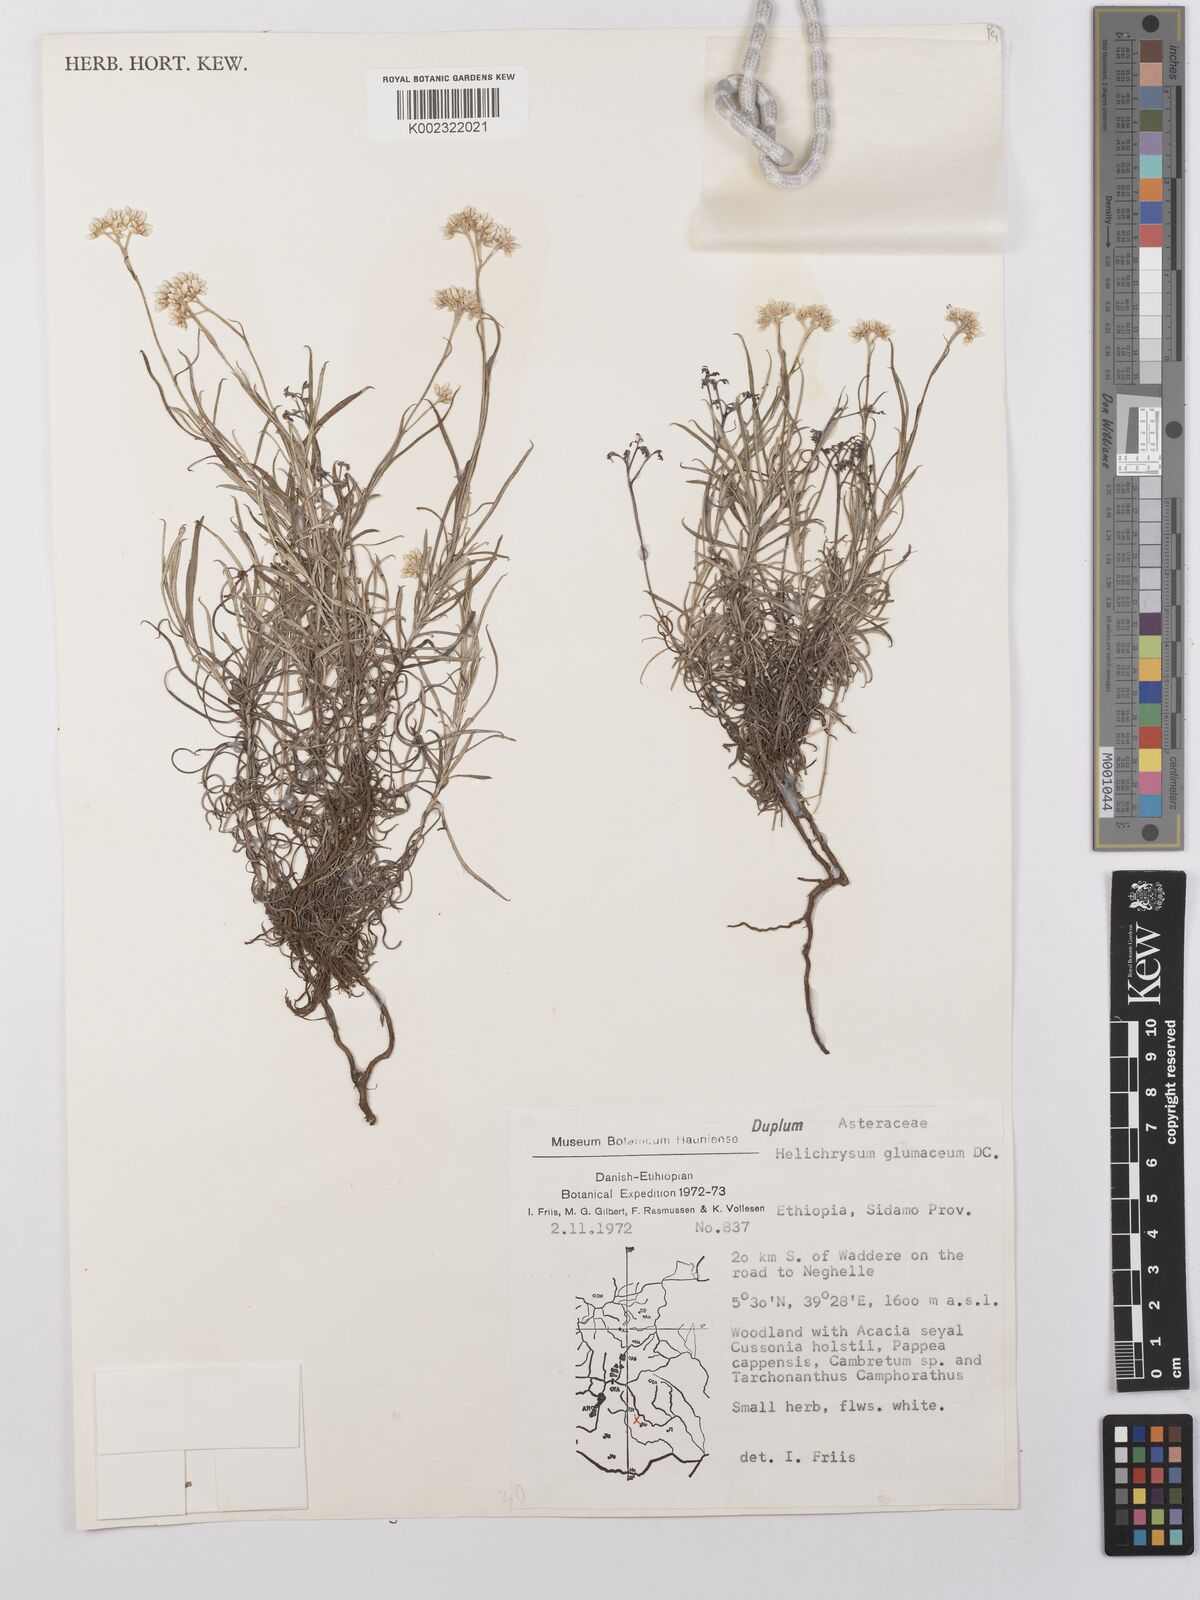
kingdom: Plantae
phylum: Tracheophyta
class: Magnoliopsida
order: Asterales
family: Asteraceae
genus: Helichrysum
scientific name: Helichrysum glumaceum
